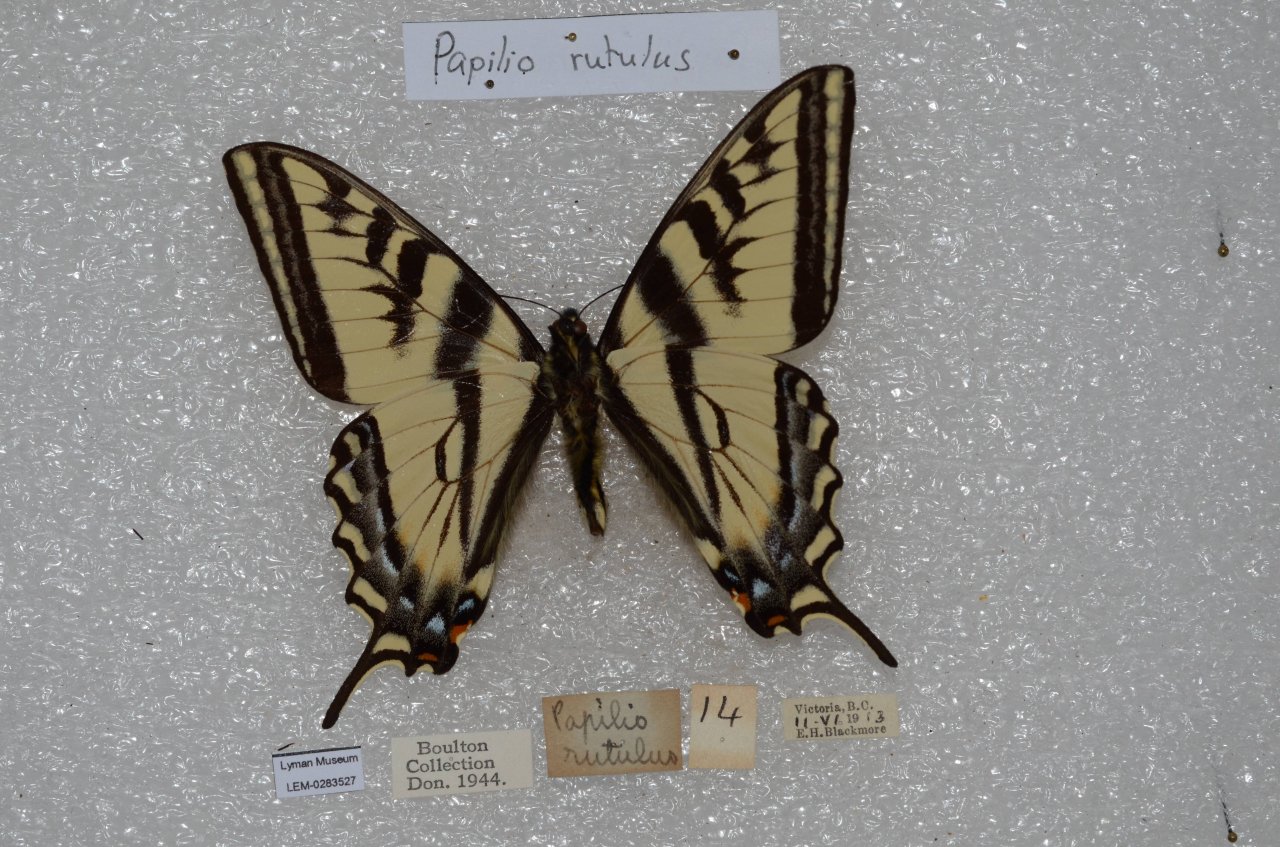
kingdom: Animalia
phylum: Arthropoda
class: Insecta
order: Lepidoptera
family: Papilionidae
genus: Pterourus
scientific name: Pterourus rutulus
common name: Western Tiger Swallowtail
